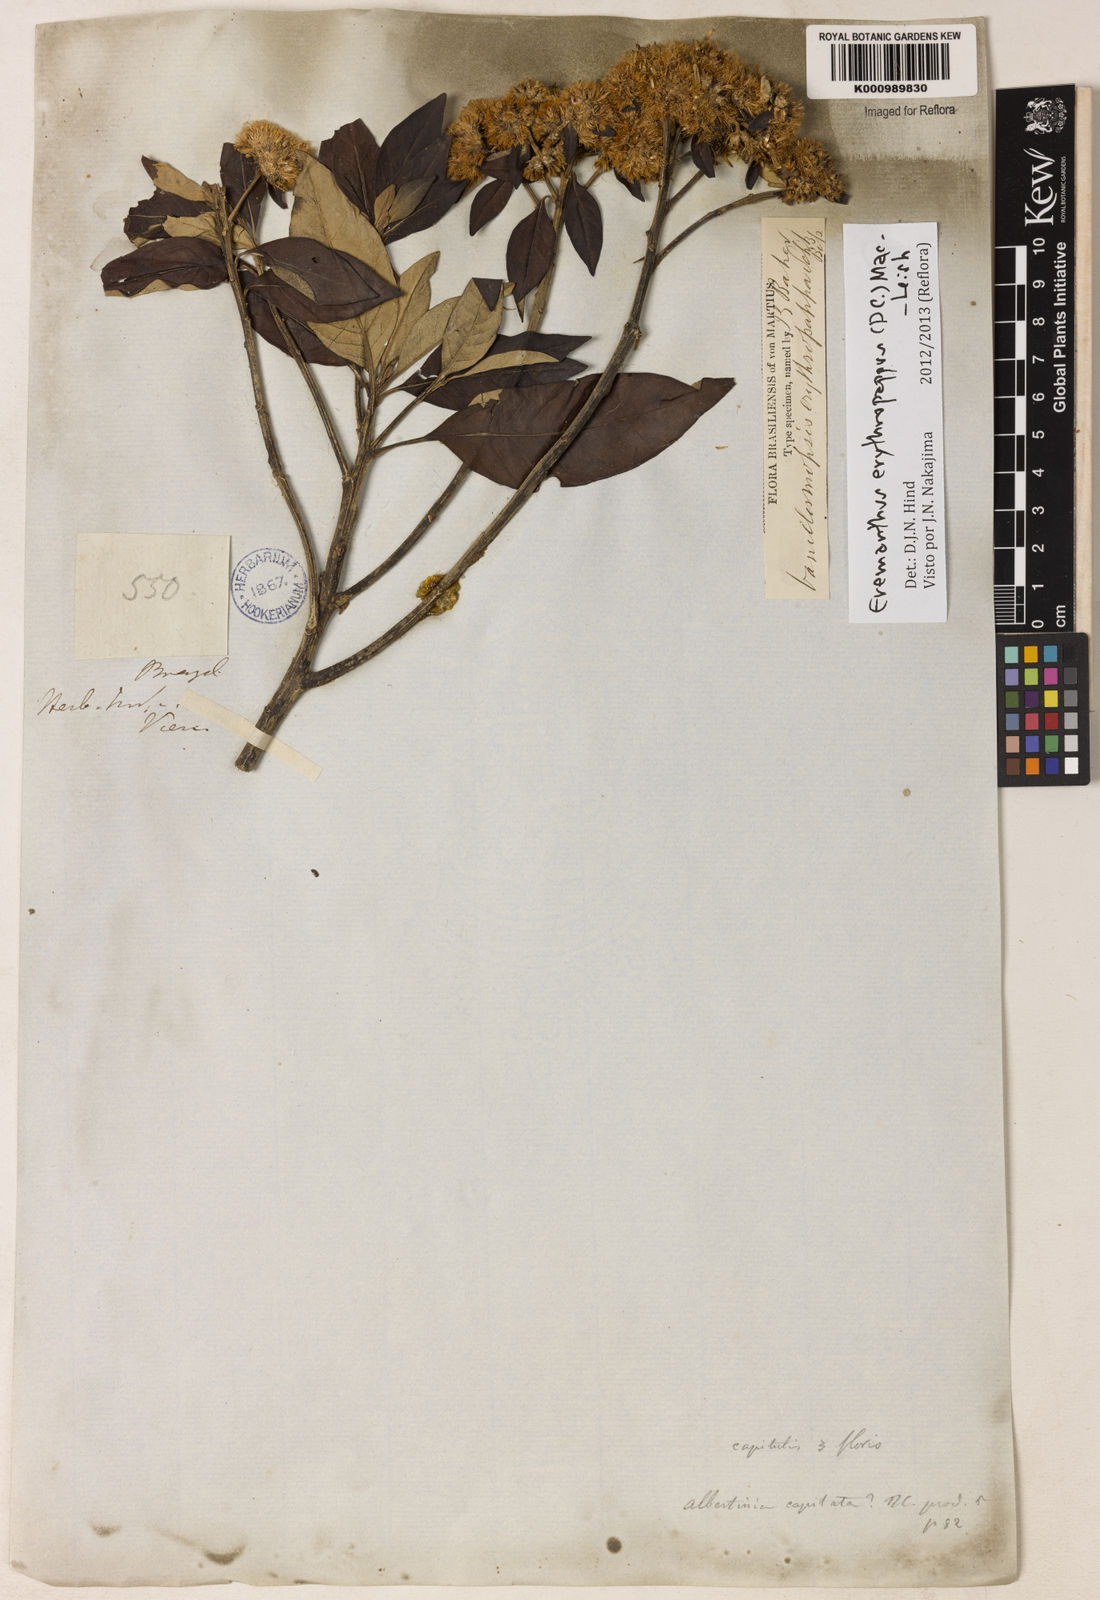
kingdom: Plantae
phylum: Tracheophyta
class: Magnoliopsida
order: Asterales
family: Asteraceae
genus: Eremanthus
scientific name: Eremanthus erythropappus
